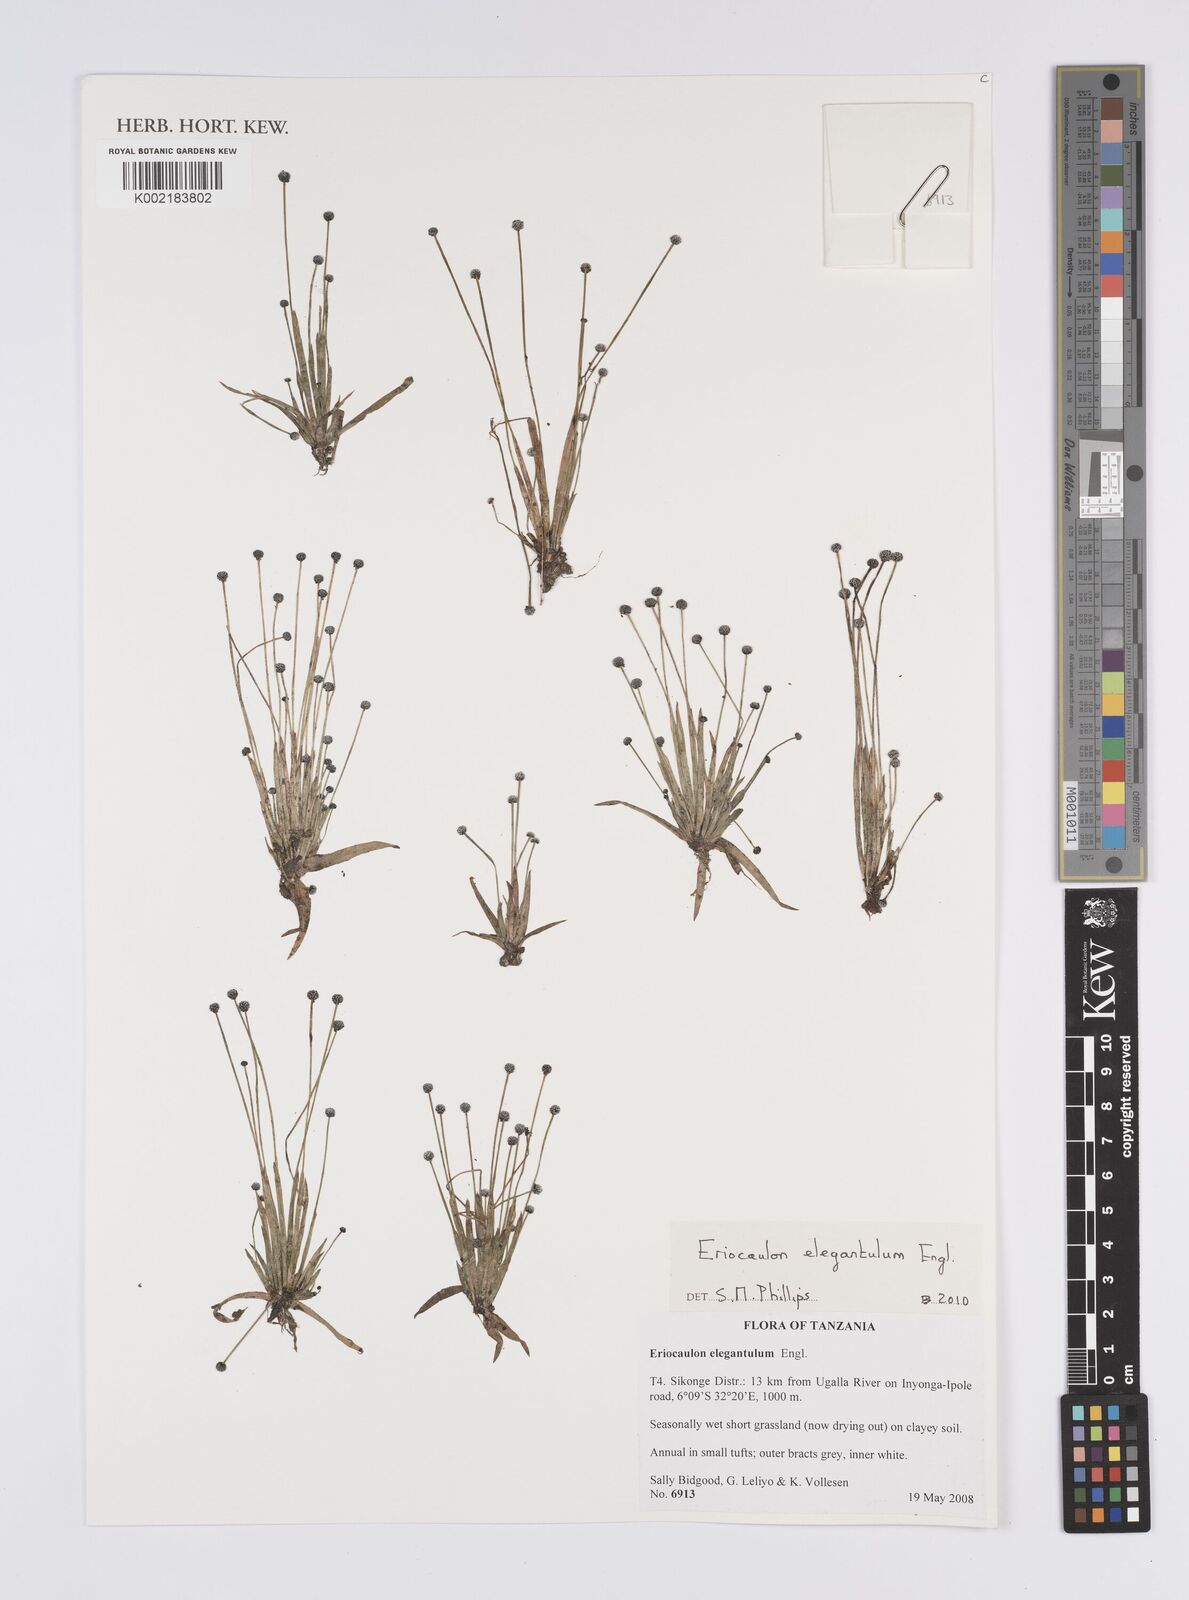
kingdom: Plantae
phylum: Tracheophyta
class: Liliopsida
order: Poales
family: Eriocaulaceae
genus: Eriocaulon
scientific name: Eriocaulon elegantulum
